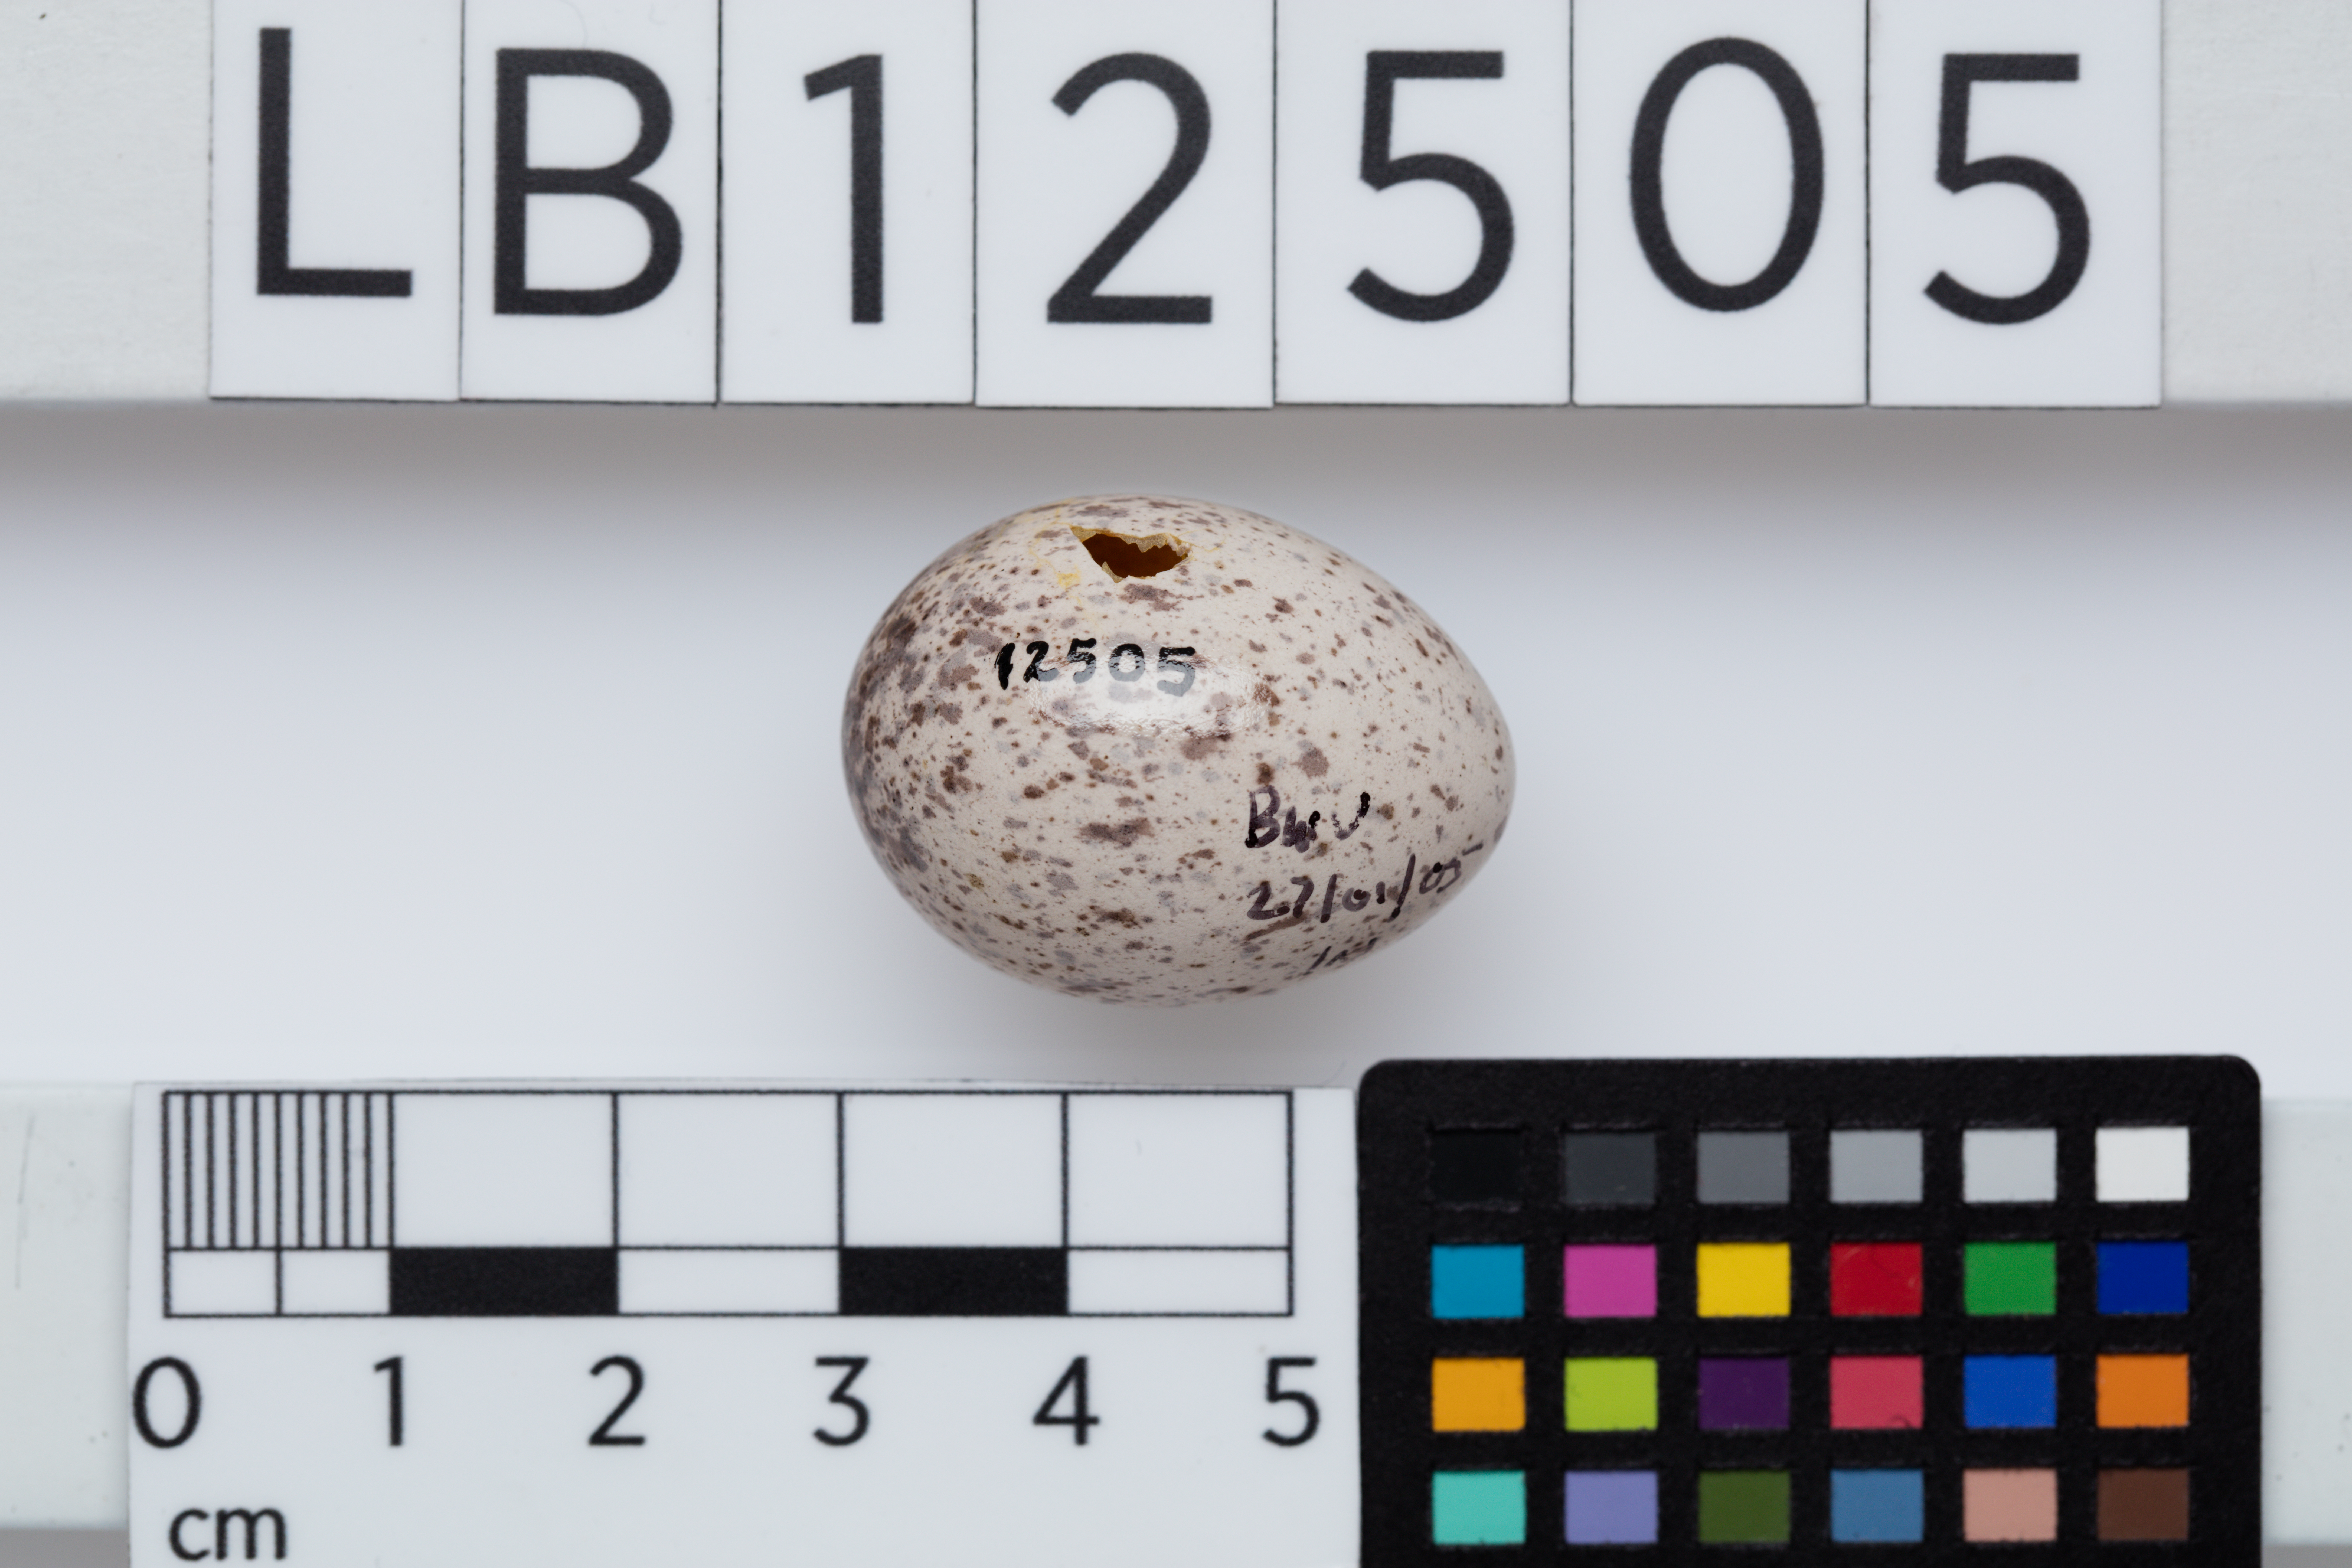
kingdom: Animalia
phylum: Chordata
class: Aves
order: Passeriformes
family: Callaeatidae
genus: Philesturnus
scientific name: Philesturnus carunculatus
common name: South island saddleback
